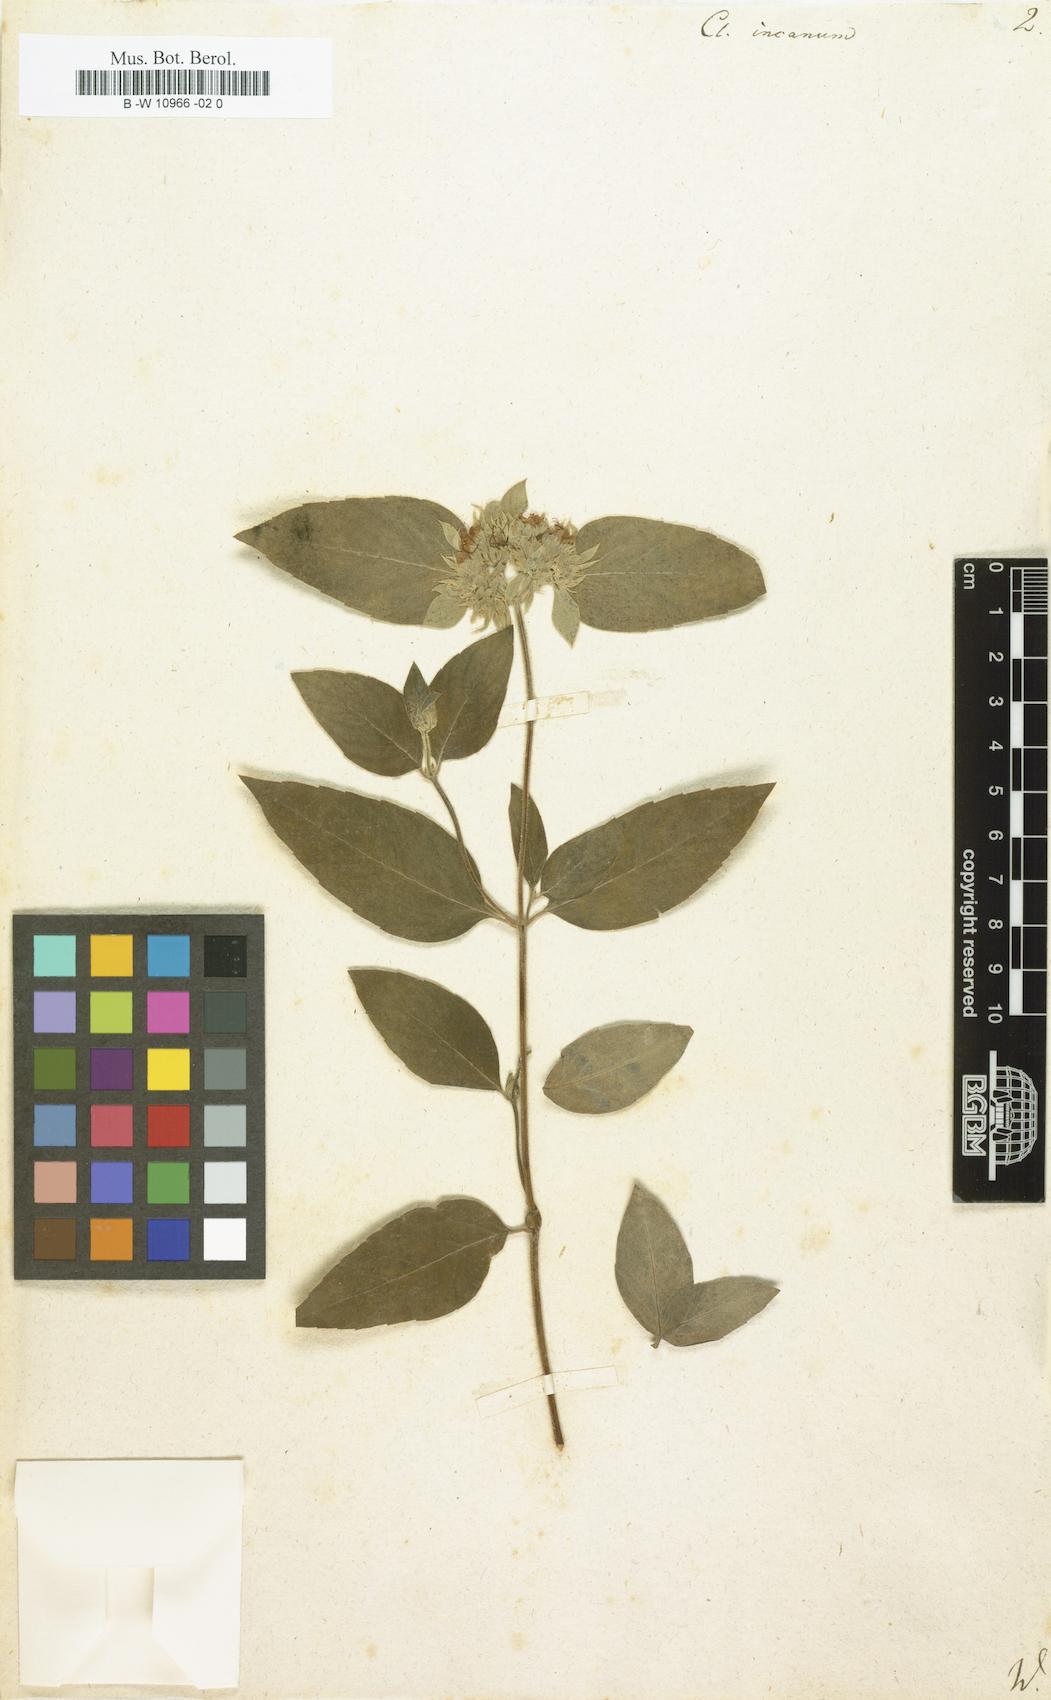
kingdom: Plantae
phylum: Tracheophyta
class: Magnoliopsida
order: Lamiales
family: Lamiaceae
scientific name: Lamiaceae
